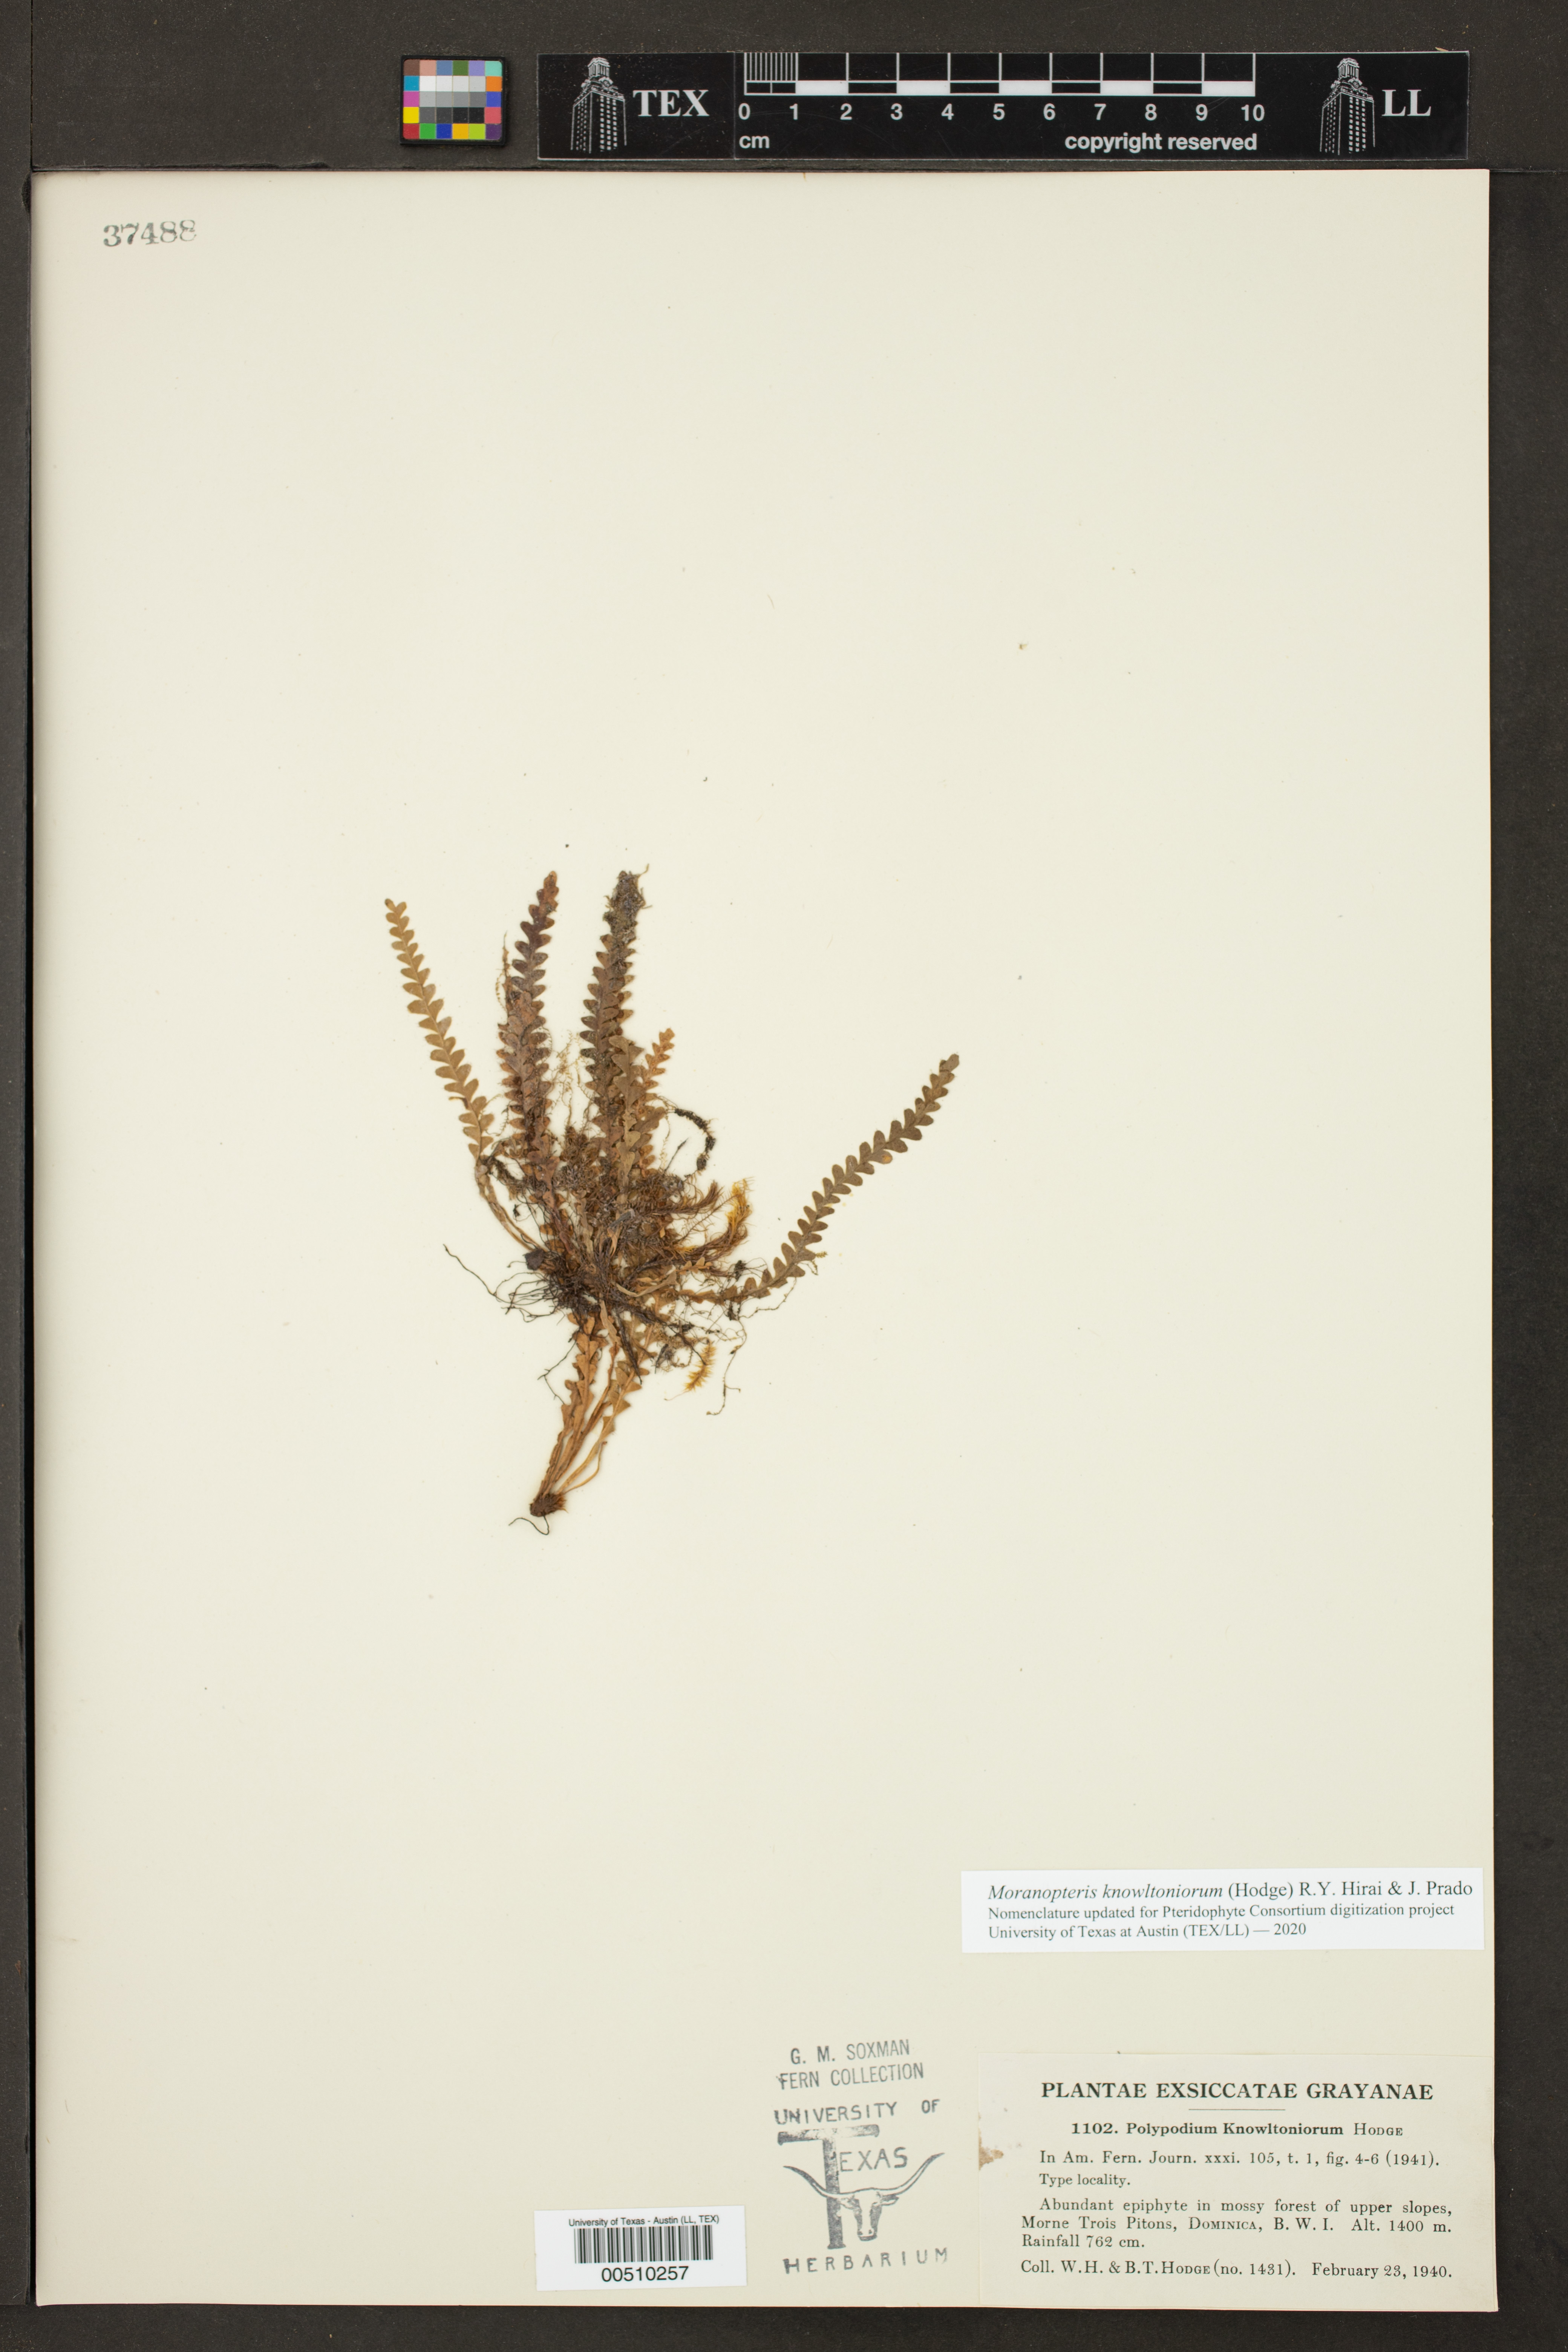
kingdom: Plantae
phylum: Tracheophyta
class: Polypodiopsida
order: Polypodiales
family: Polypodiaceae
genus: Grammitis
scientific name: Grammitis
